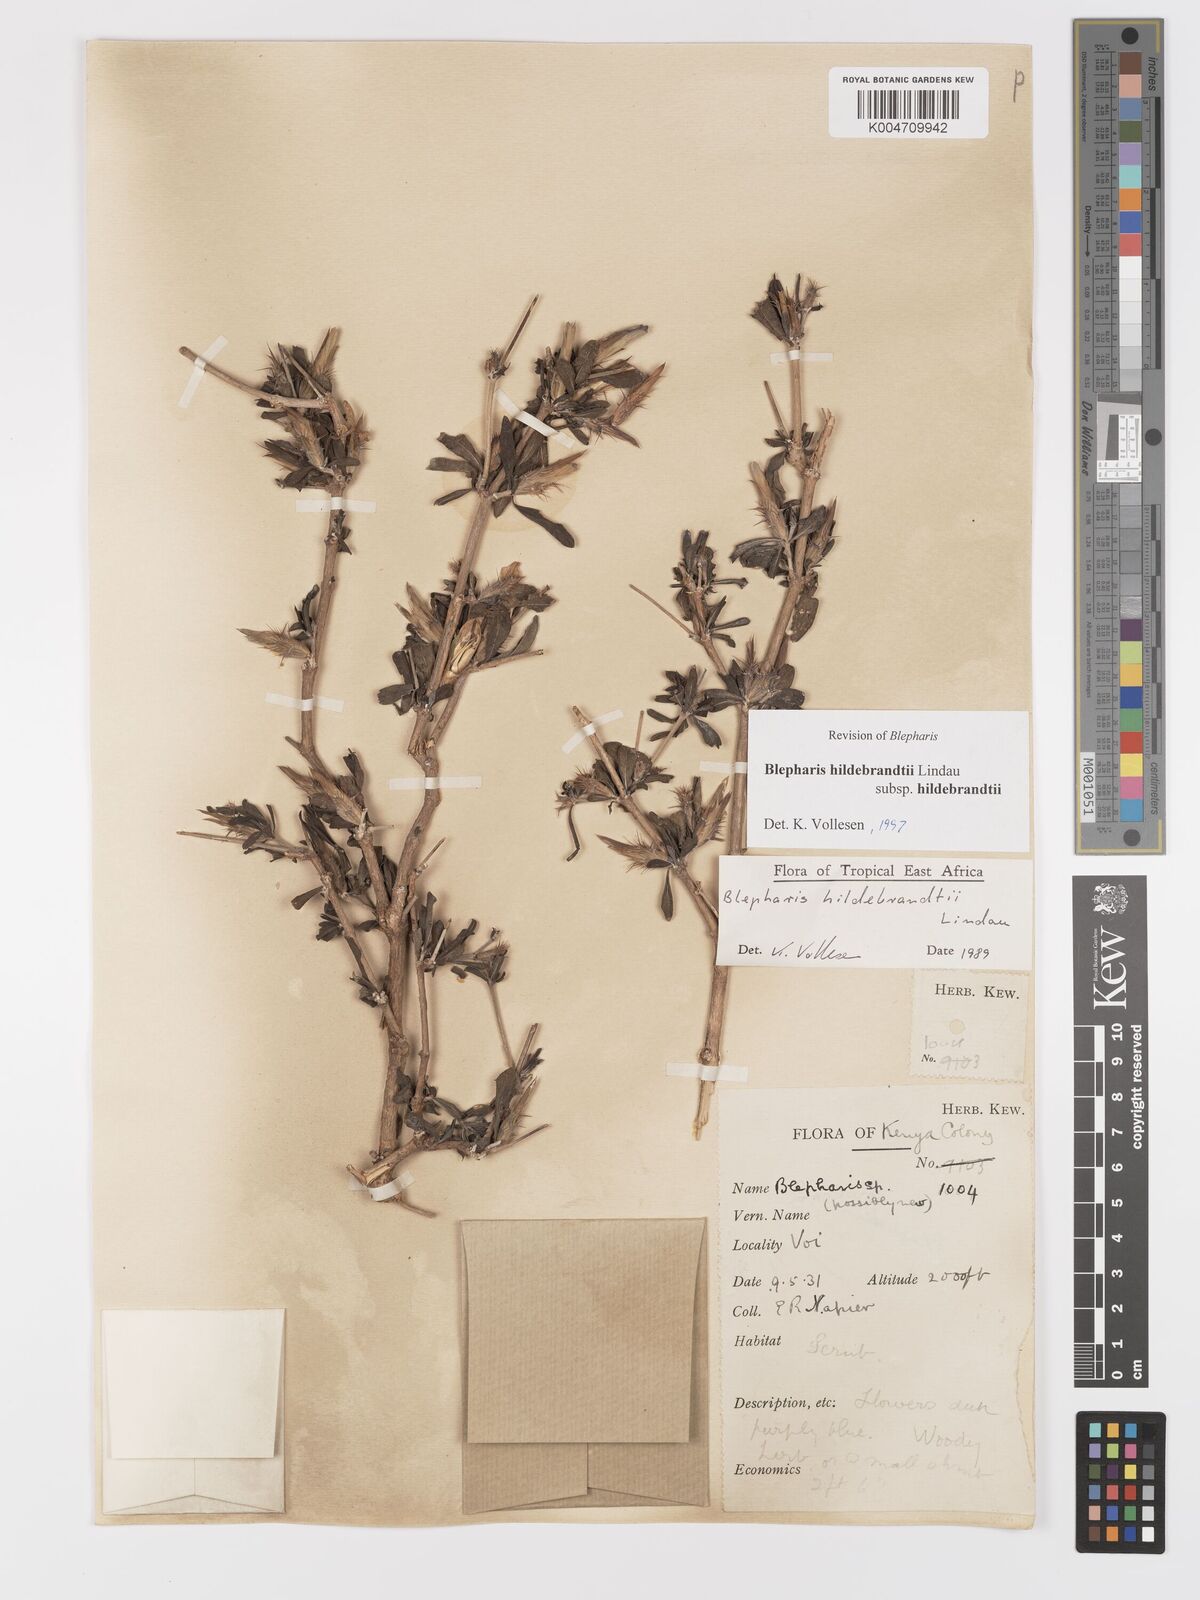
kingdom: Plantae
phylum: Tracheophyta
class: Magnoliopsida
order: Lamiales
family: Acanthaceae
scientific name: Acanthaceae
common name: Acanthaceae
